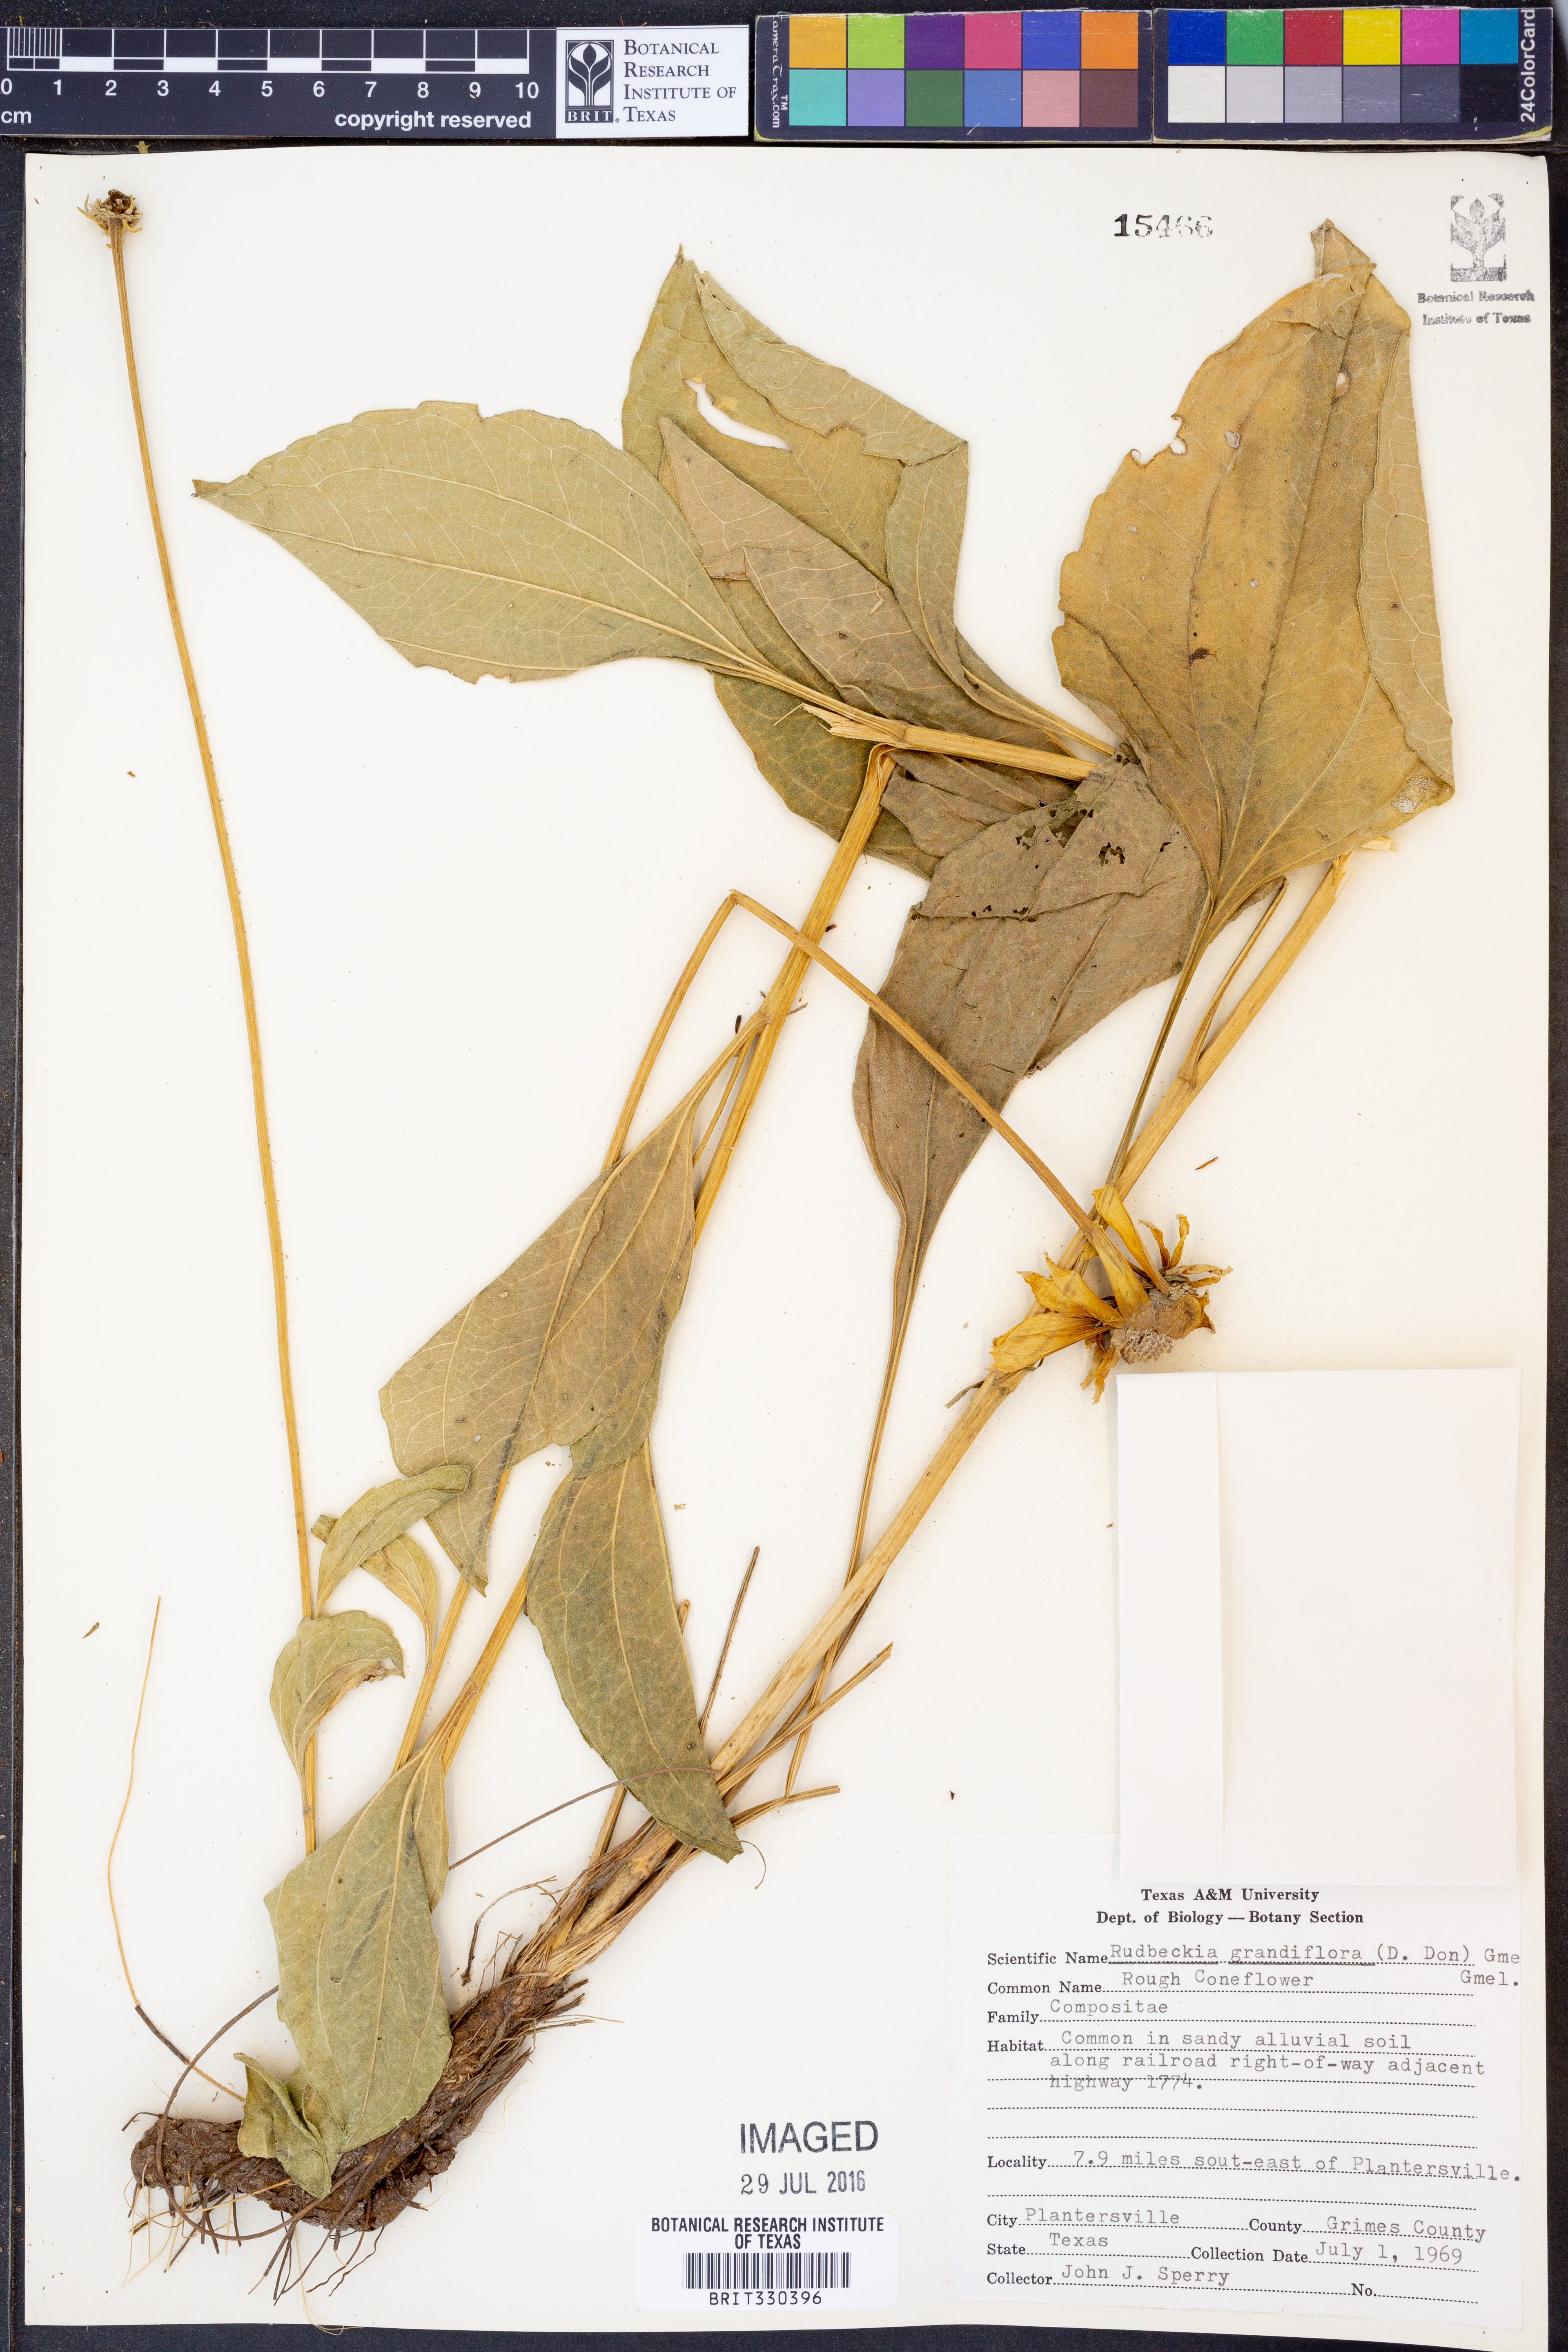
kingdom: Plantae
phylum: Tracheophyta
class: Magnoliopsida
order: Asterales
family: Asteraceae
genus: Rudbeckia
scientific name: Rudbeckia grandiflora
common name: Large-flowered coneflower
